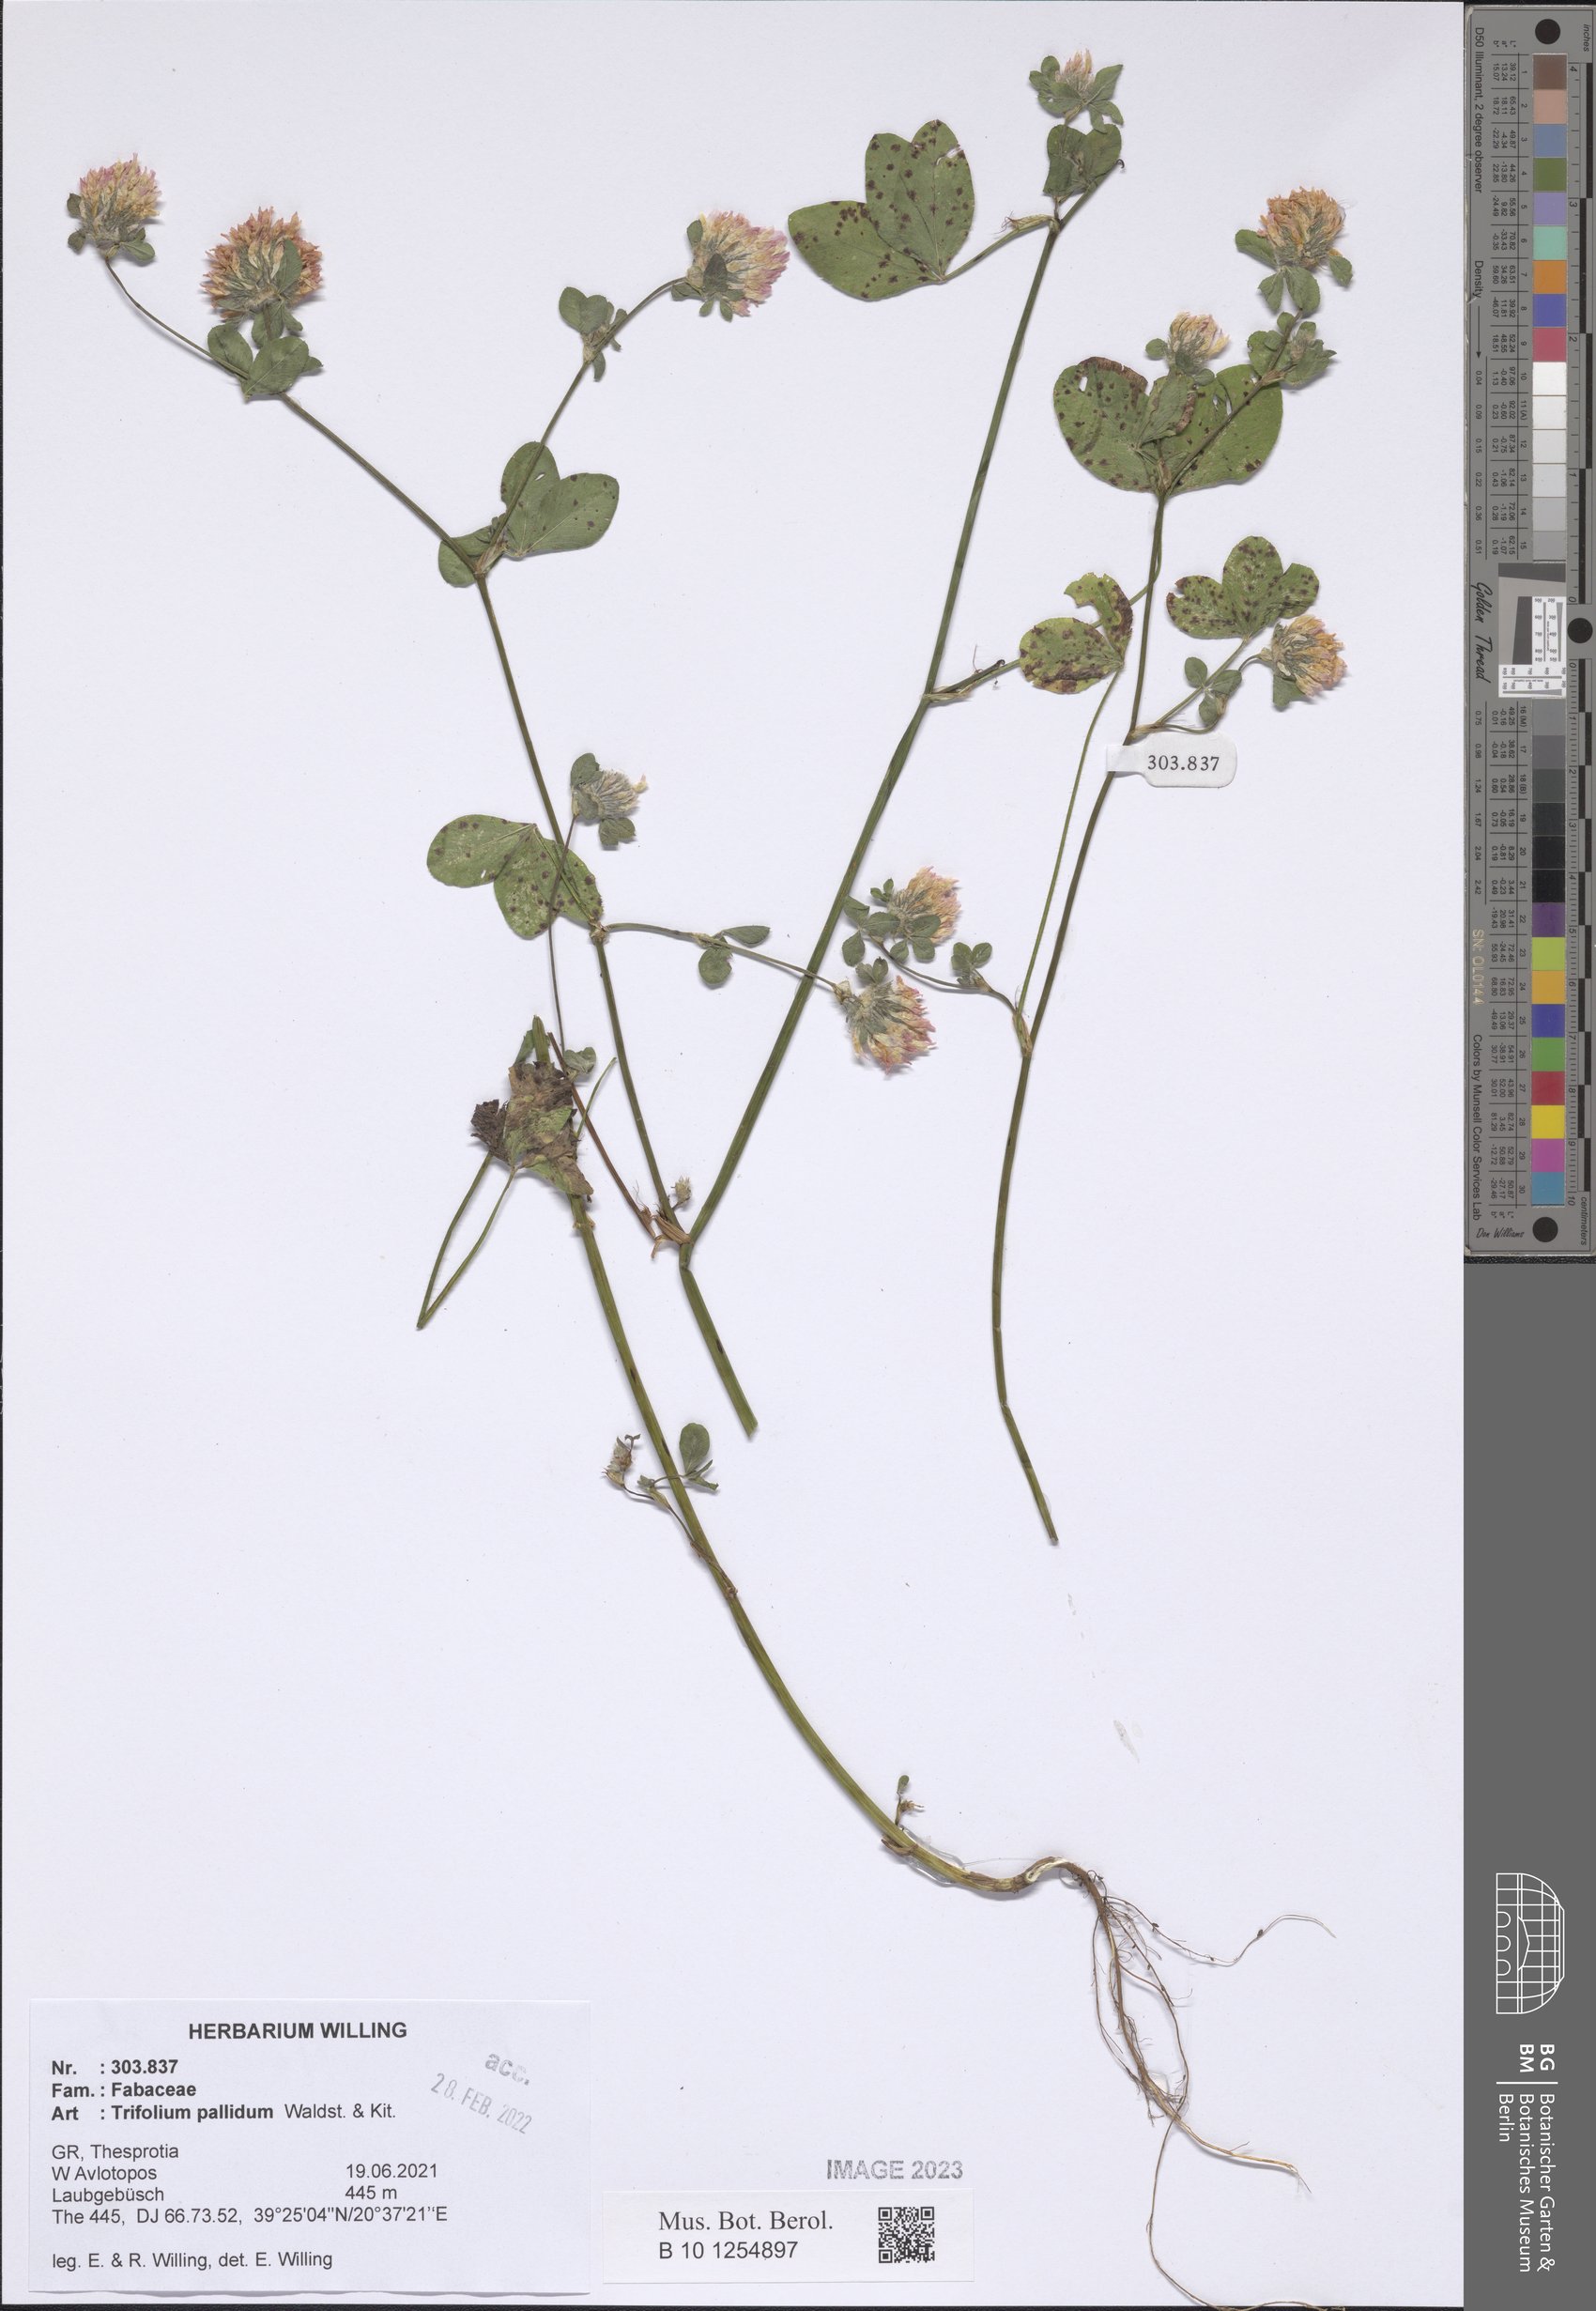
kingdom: Plantae
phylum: Tracheophyta
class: Magnoliopsida
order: Fabales
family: Fabaceae
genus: Trifolium
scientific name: Trifolium pallidum
